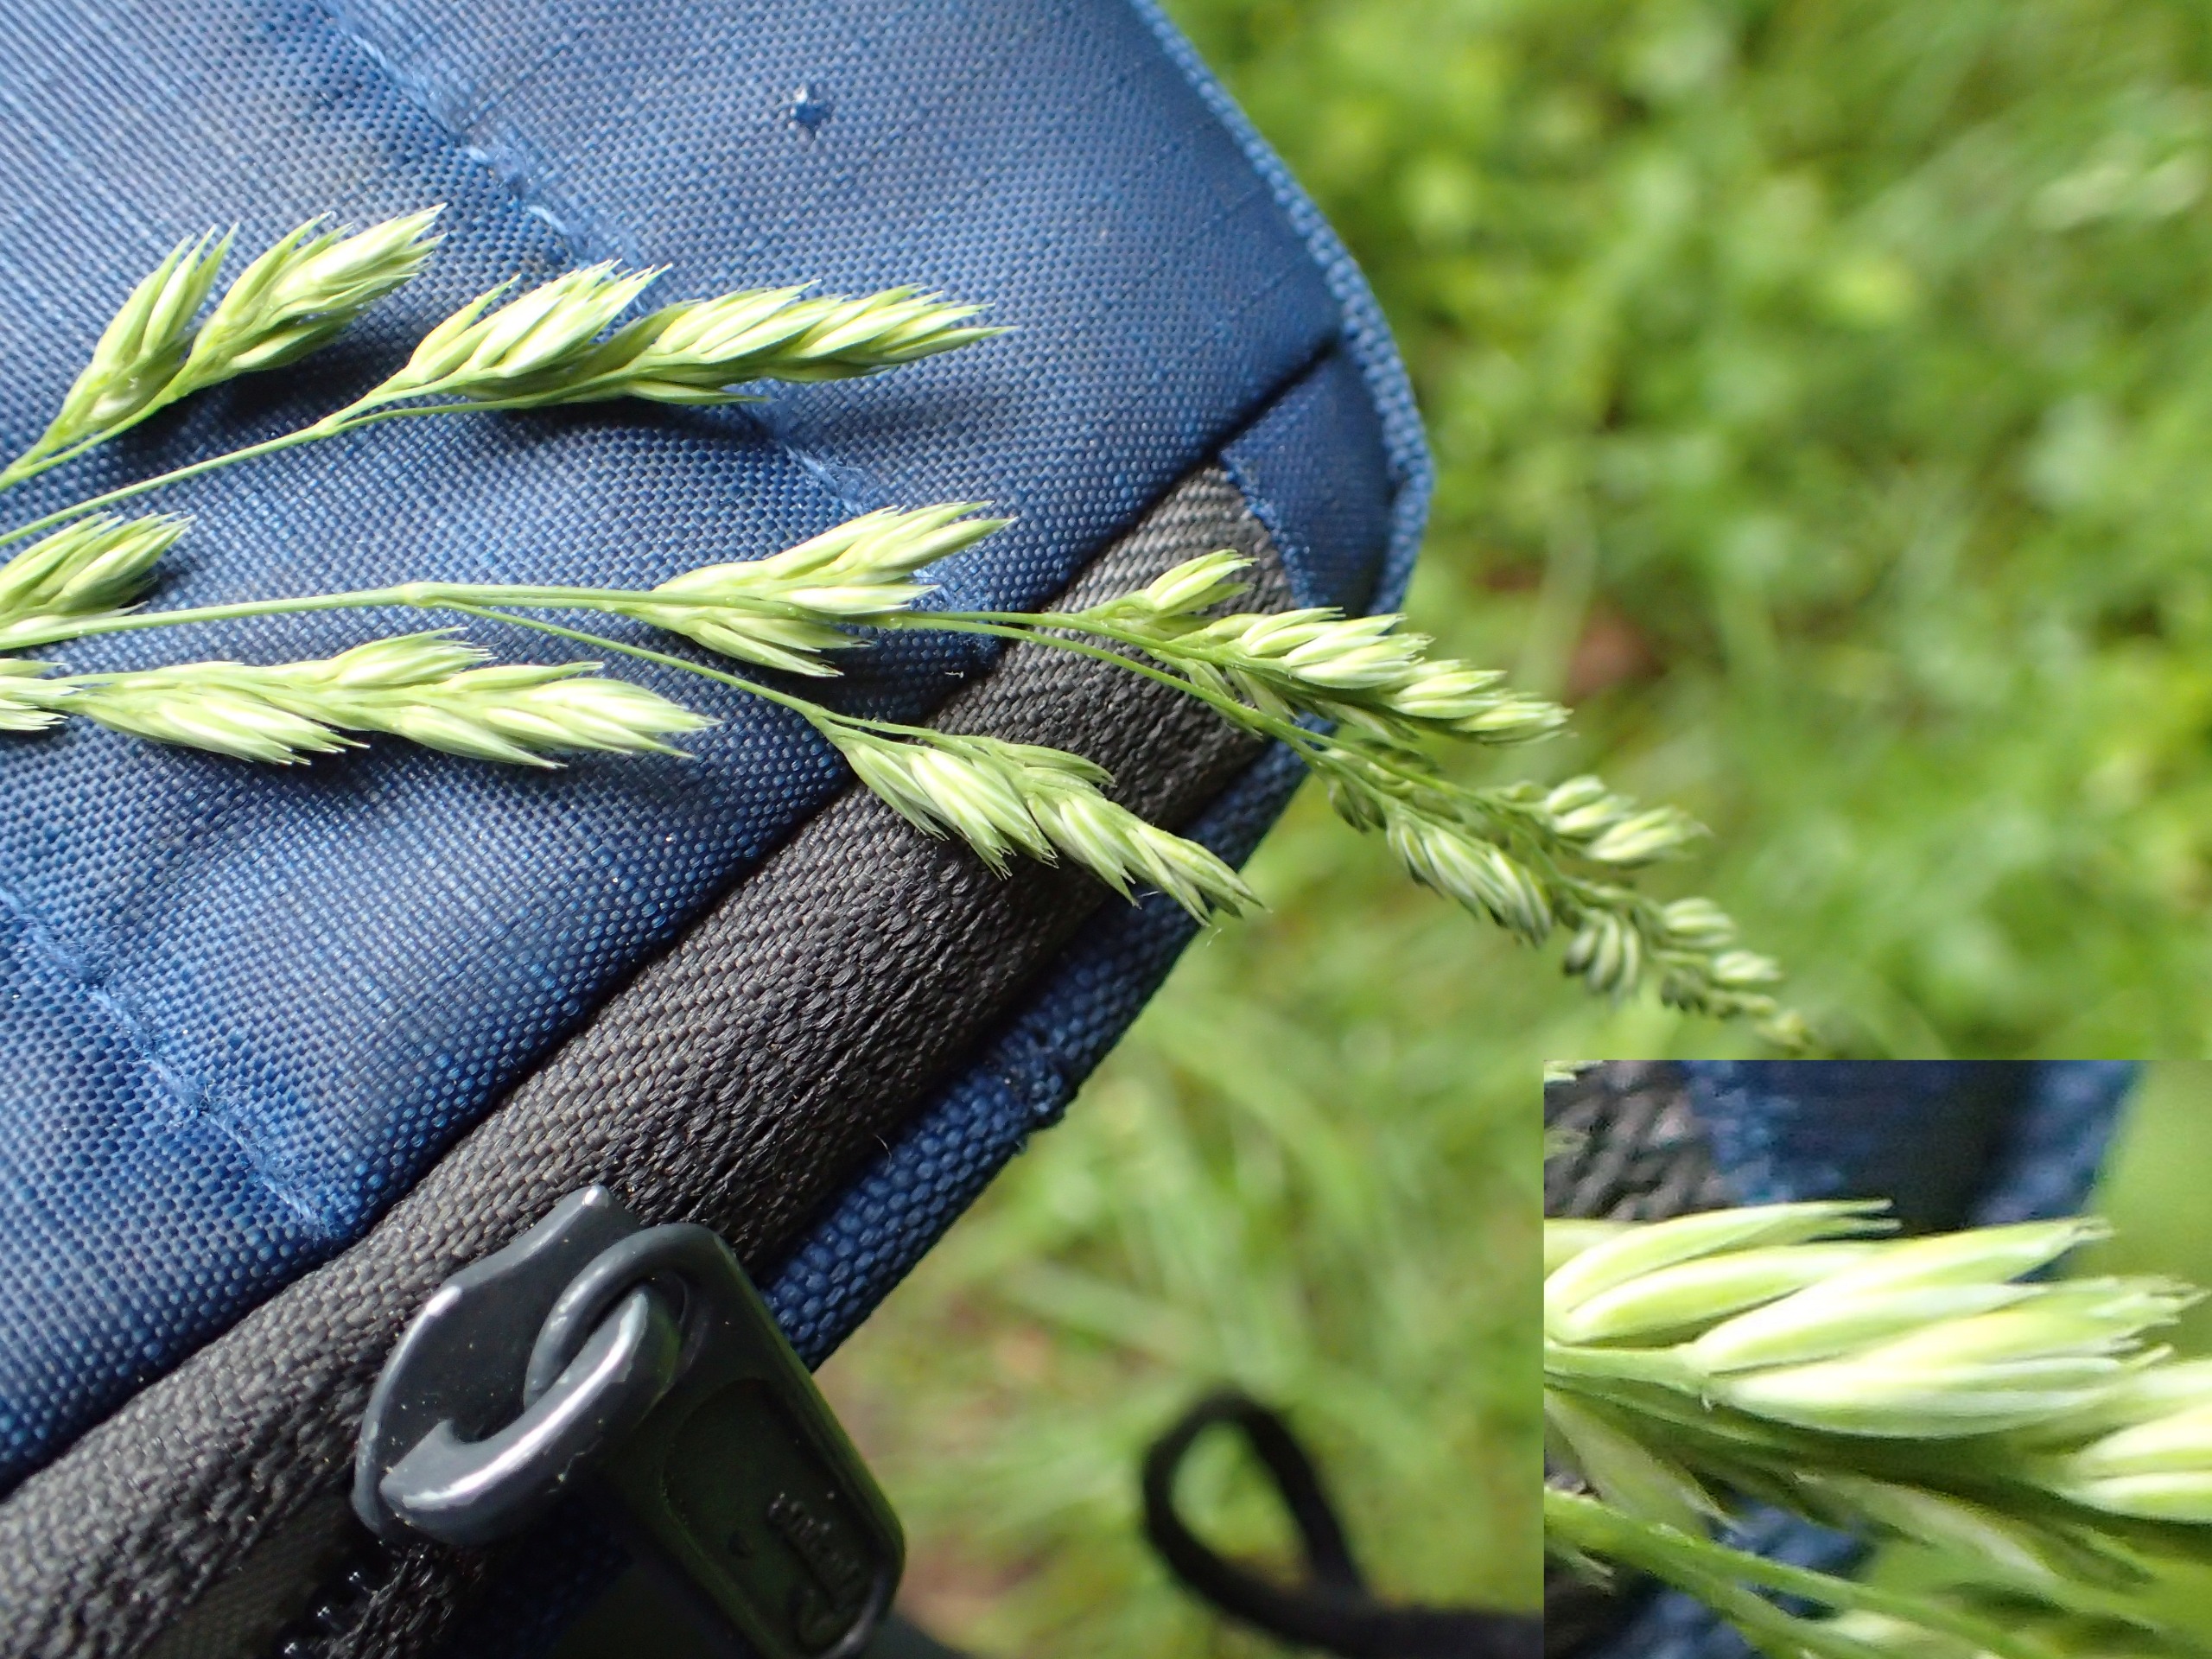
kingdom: Plantae
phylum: Tracheophyta
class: Liliopsida
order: Poales
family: Poaceae
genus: Dactylis
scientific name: Dactylis glomerata
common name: Skov-hundegræs
